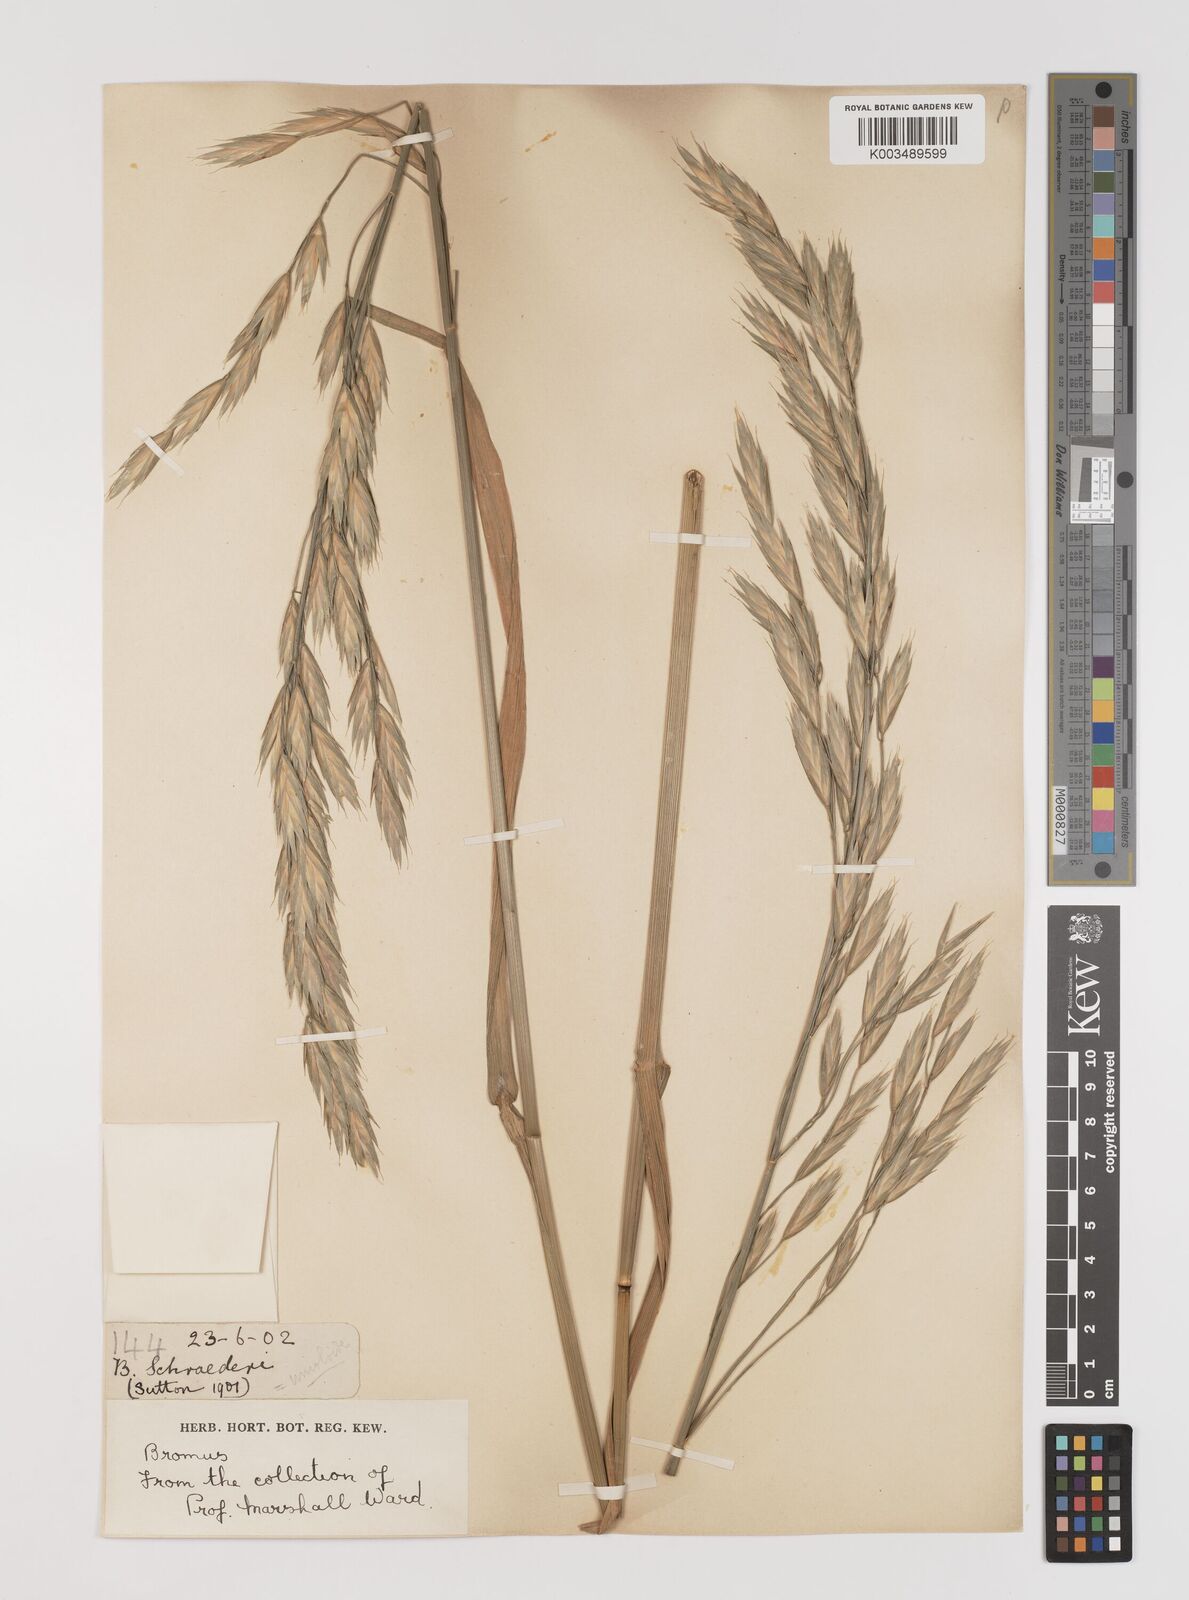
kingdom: Plantae
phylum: Tracheophyta
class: Liliopsida
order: Poales
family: Poaceae
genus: Bromus
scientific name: Bromus catharticus
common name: Rescuegrass
